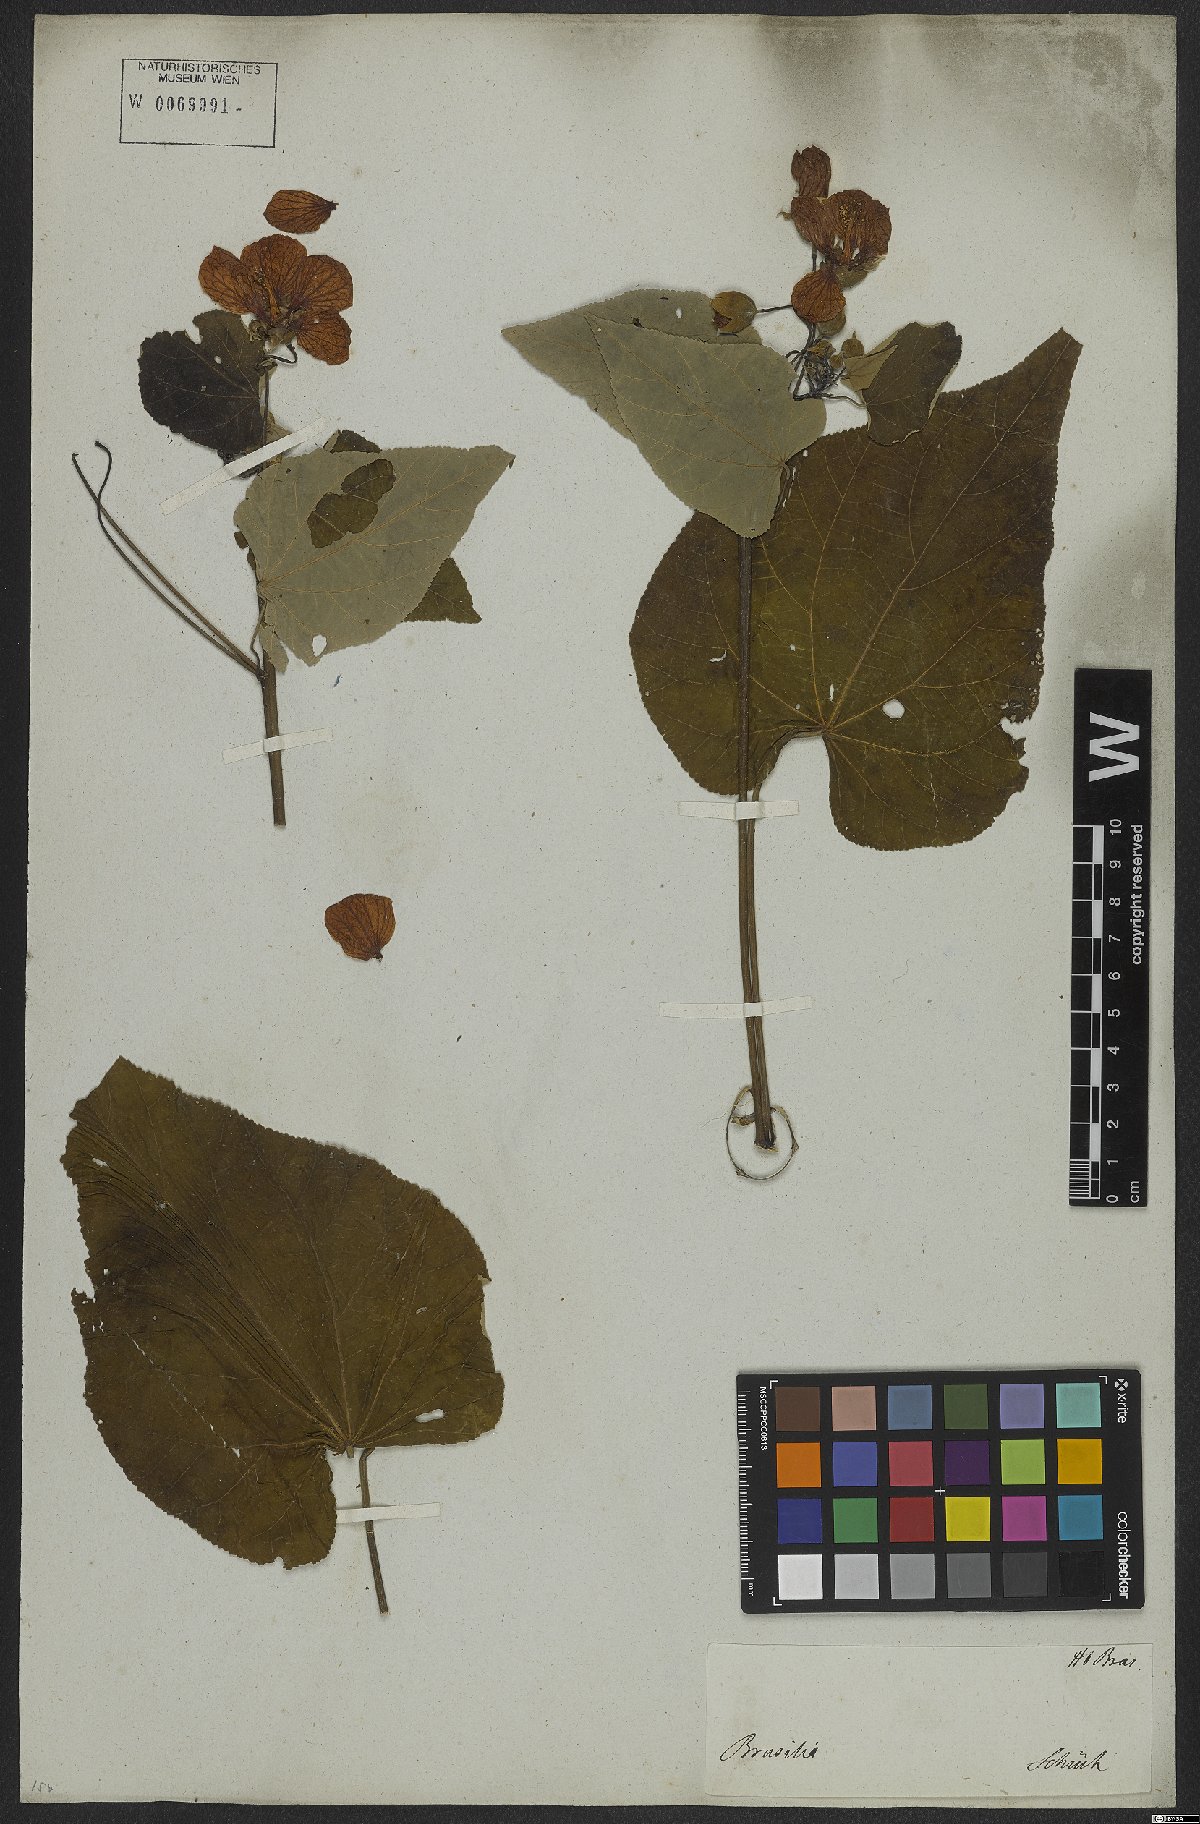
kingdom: Plantae
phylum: Tracheophyta
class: Magnoliopsida
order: Malvales
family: Malvaceae
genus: Callianthe
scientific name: Callianthe bedfordiana
